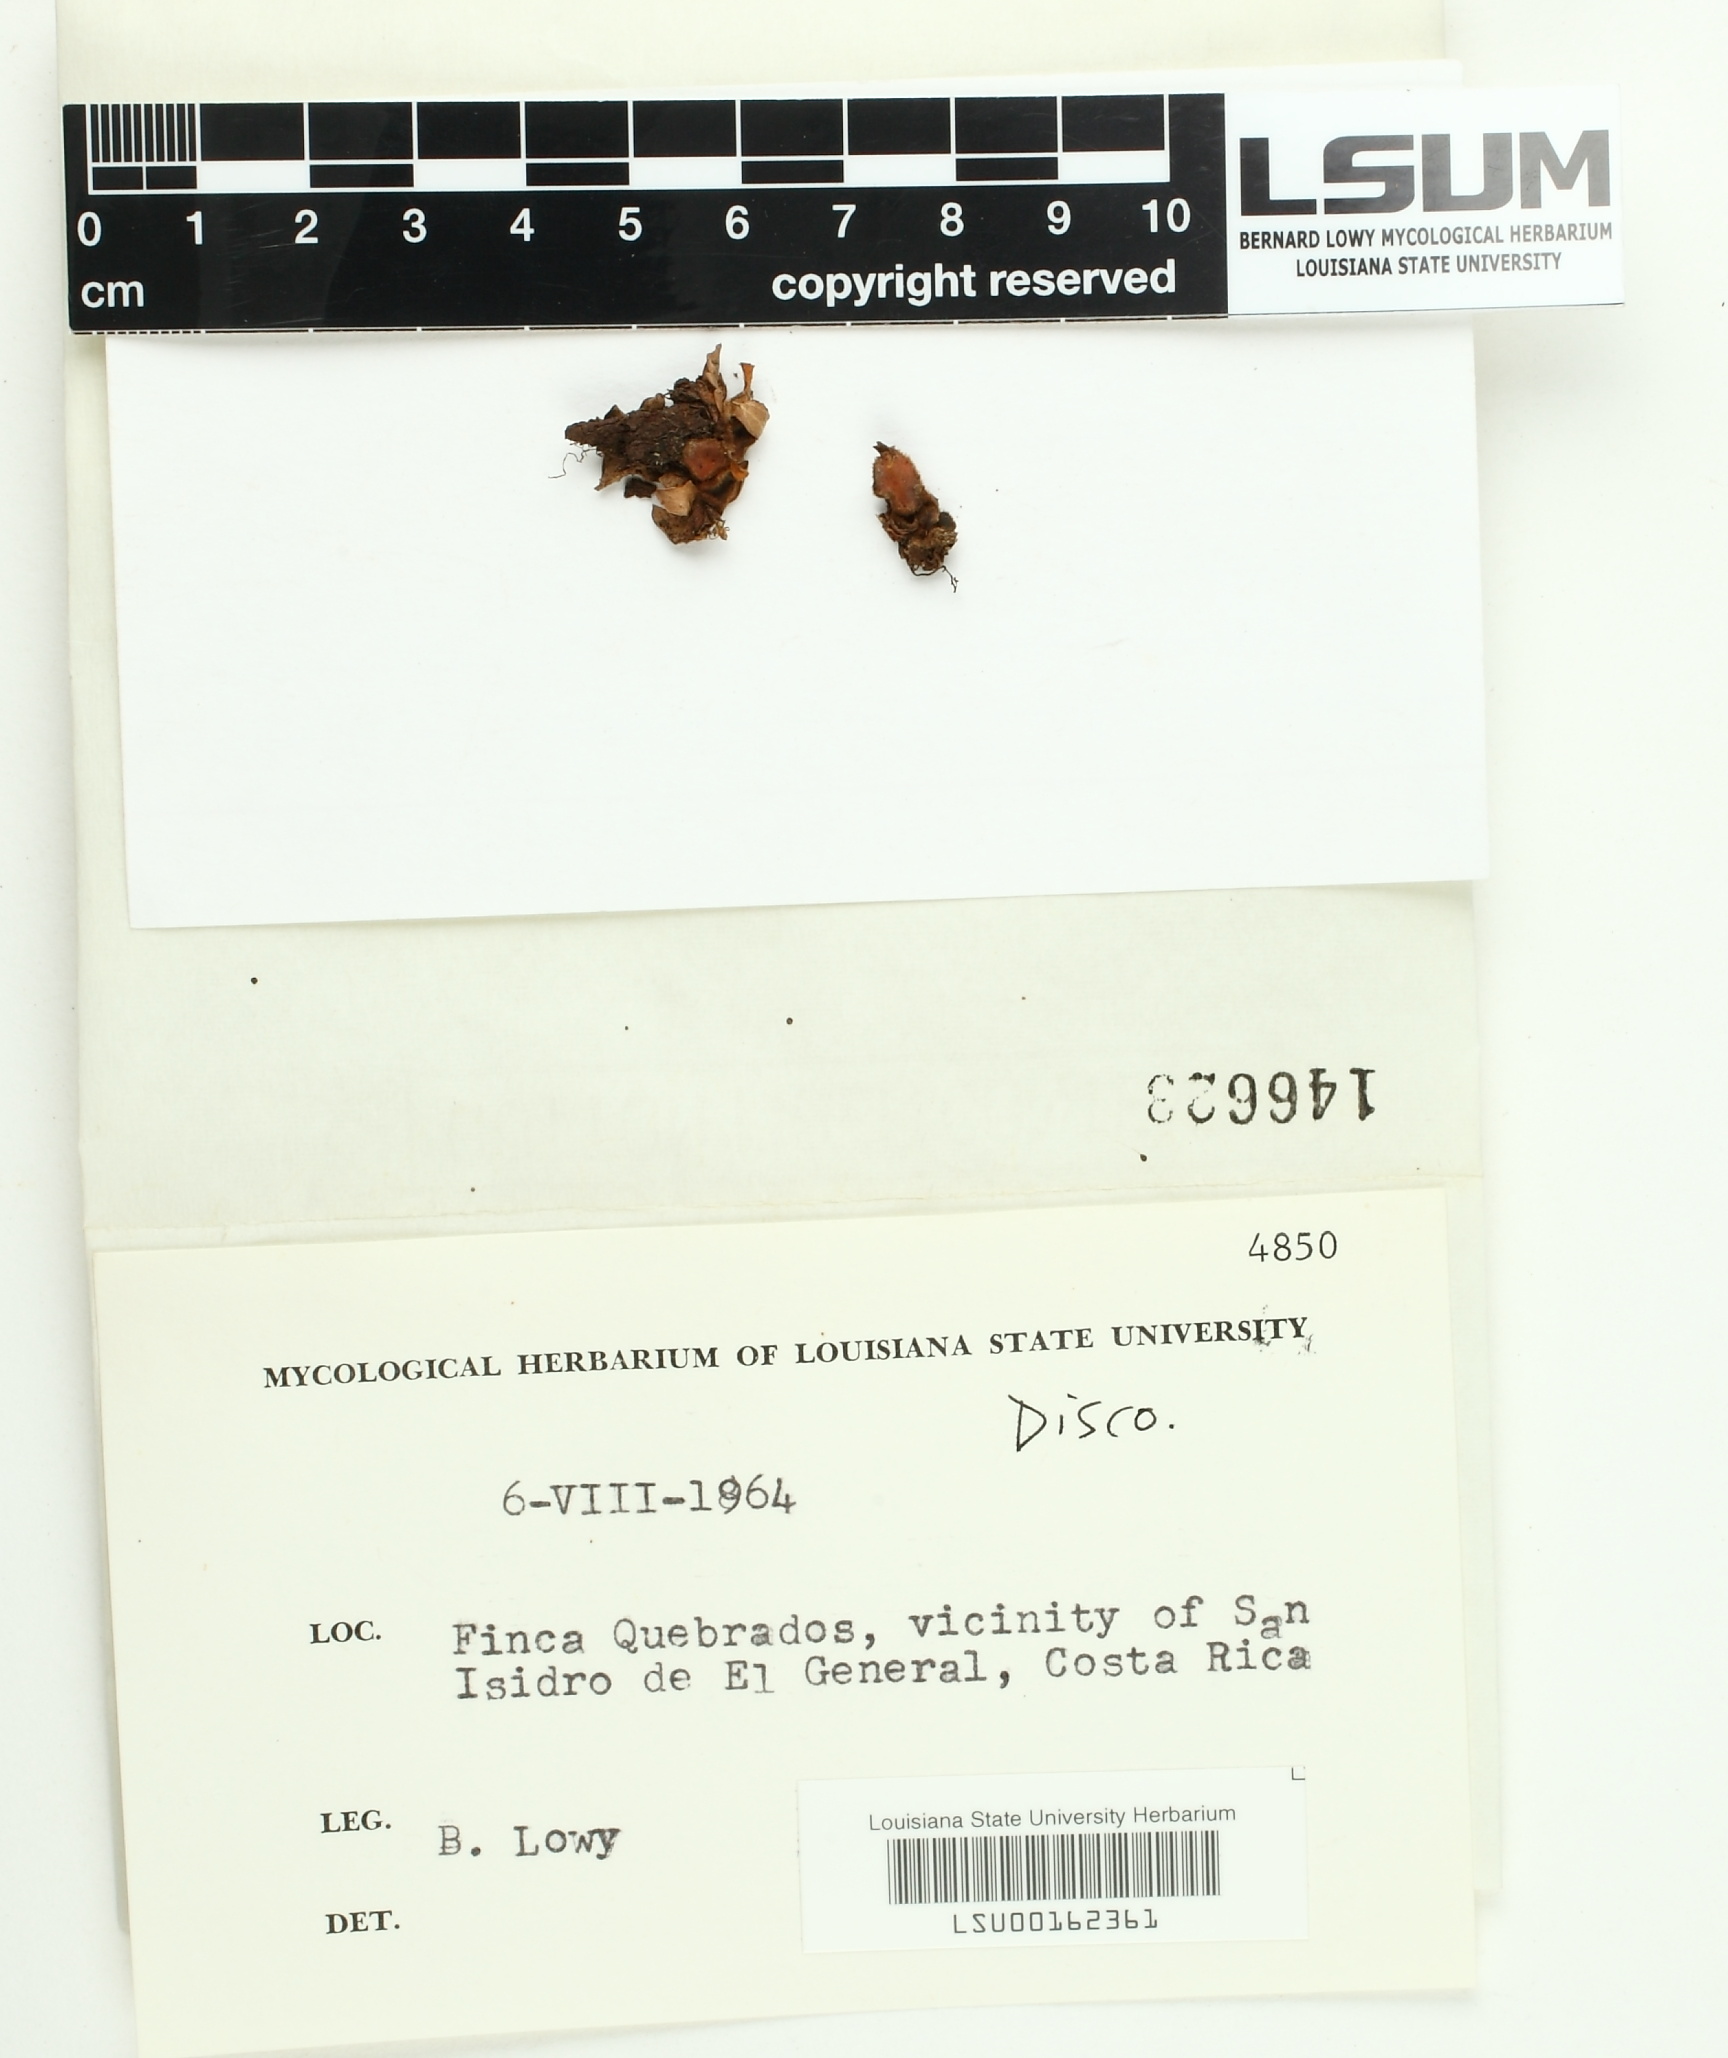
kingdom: Fungi
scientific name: Fungi
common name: Fungi
